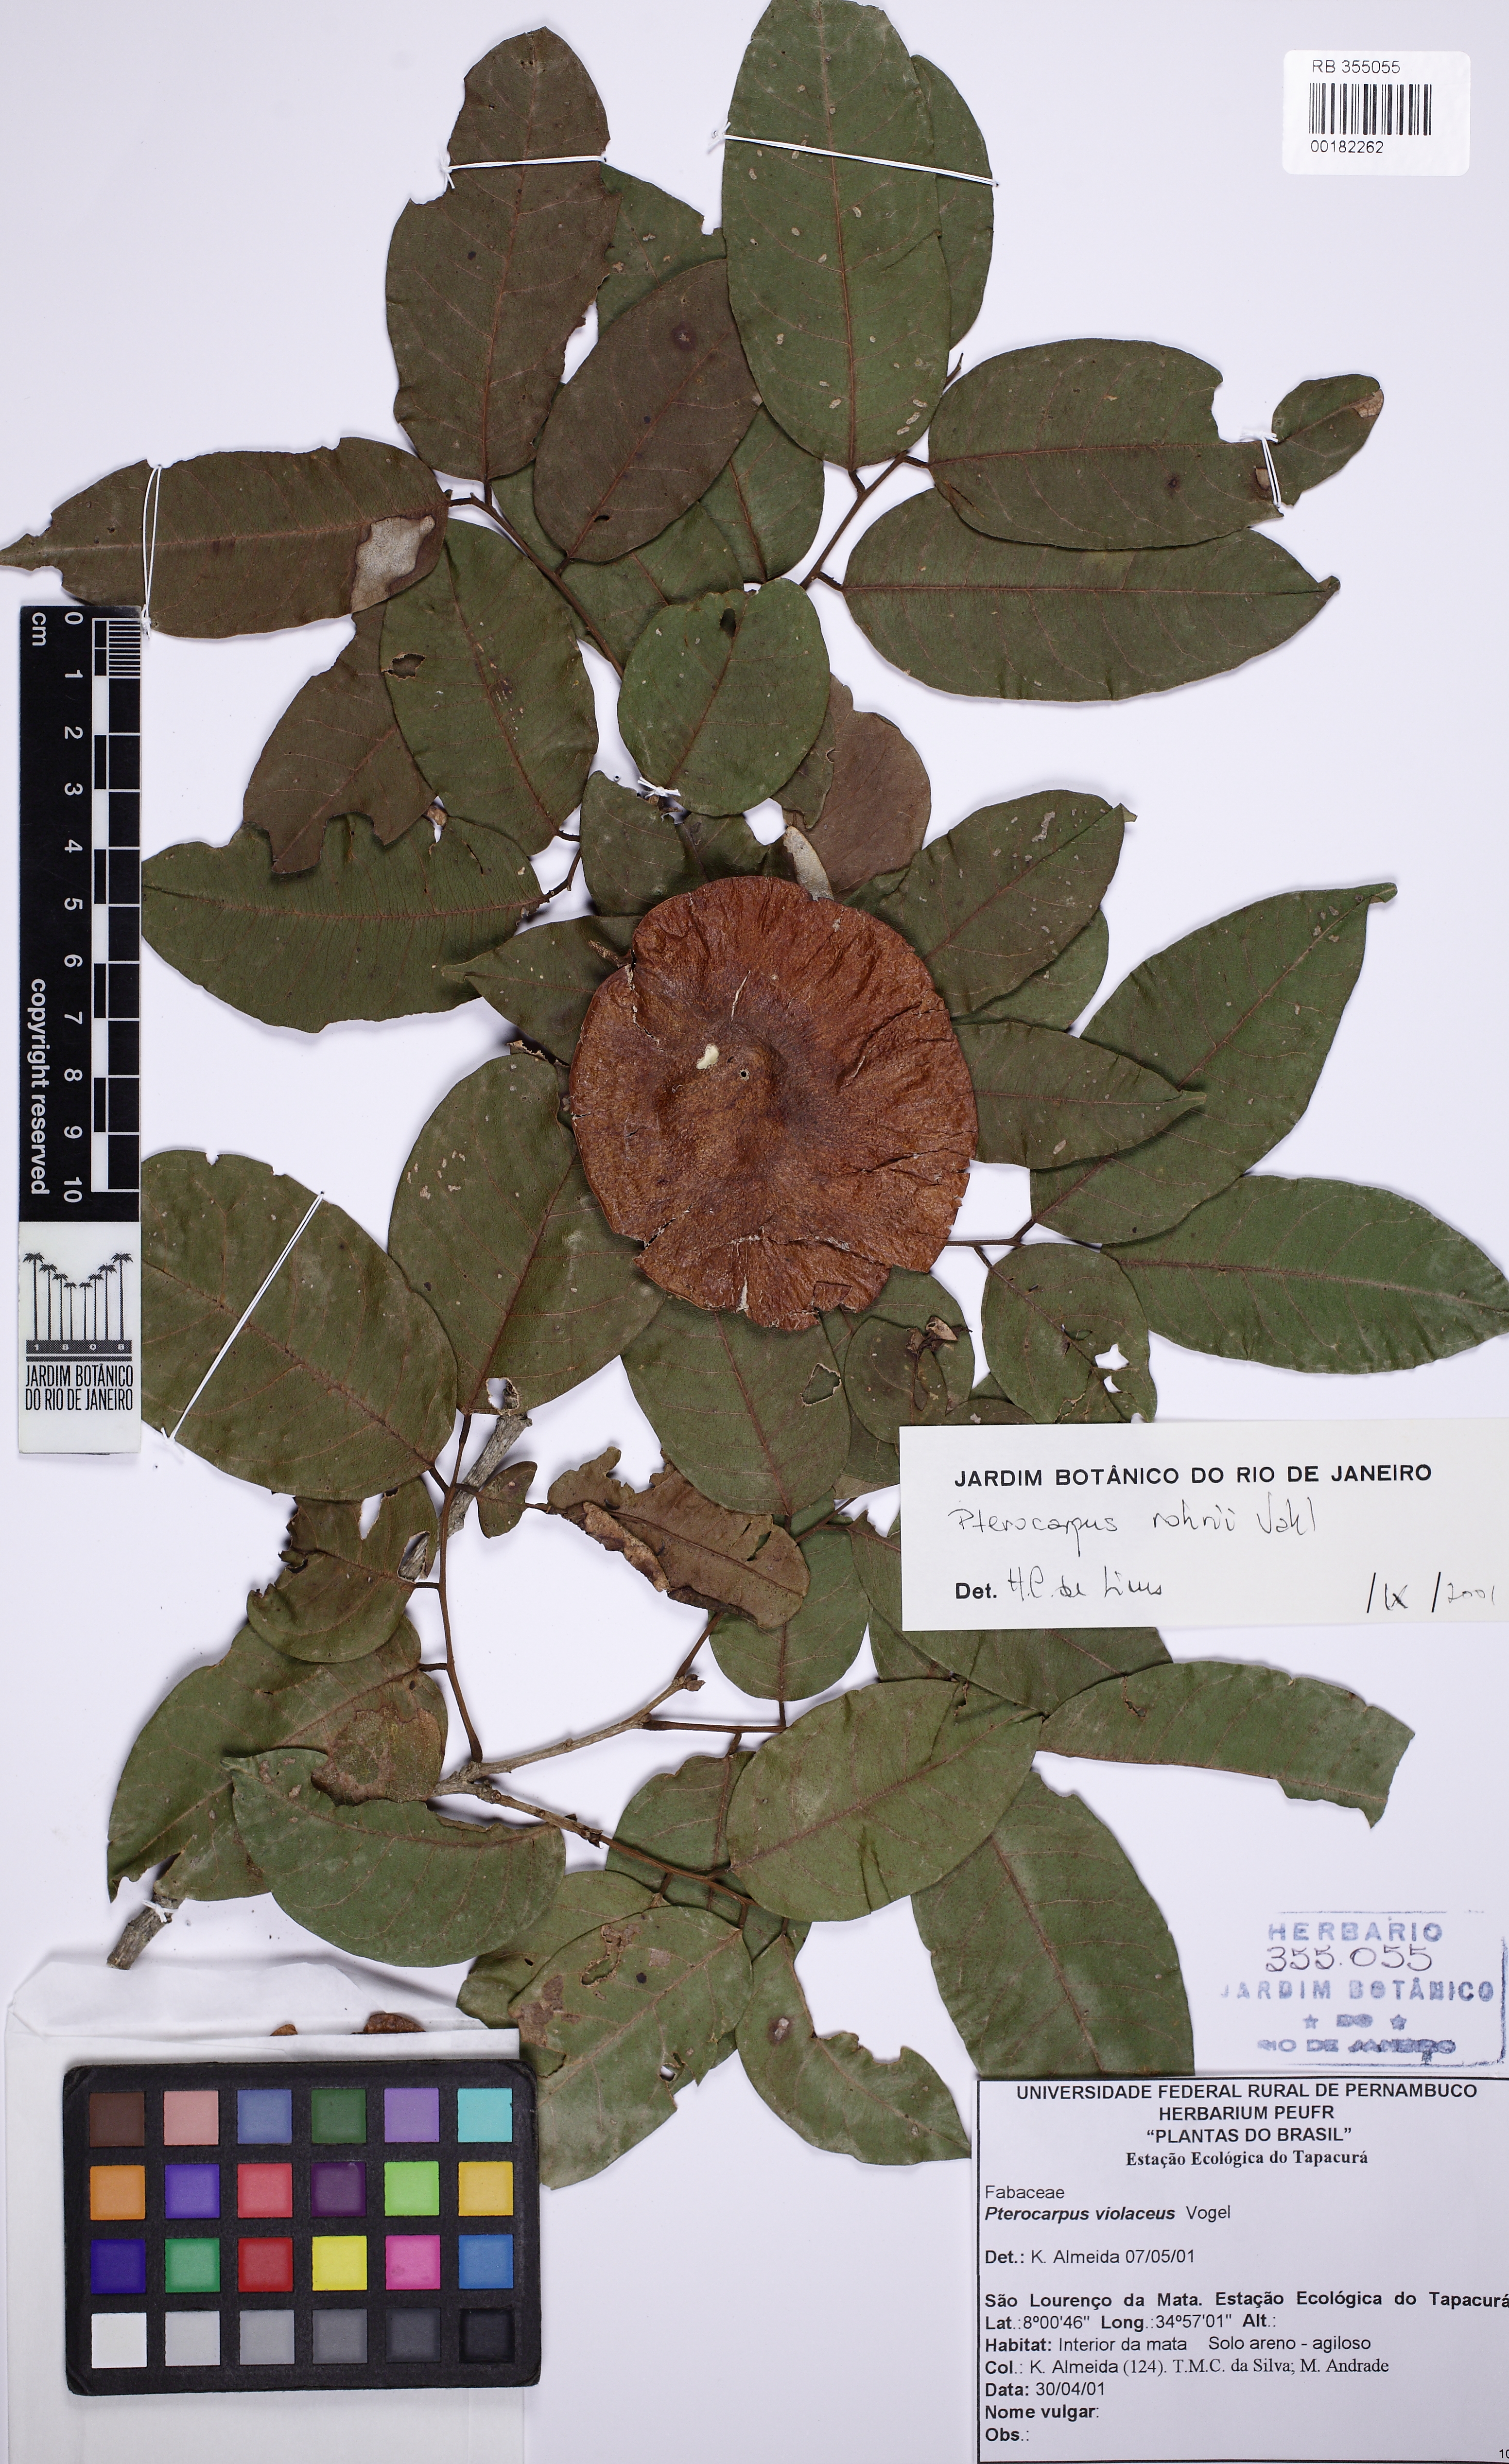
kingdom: Plantae
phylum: Tracheophyta
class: Magnoliopsida
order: Fabales
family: Fabaceae
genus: Pterocarpus
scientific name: Pterocarpus rohrii
